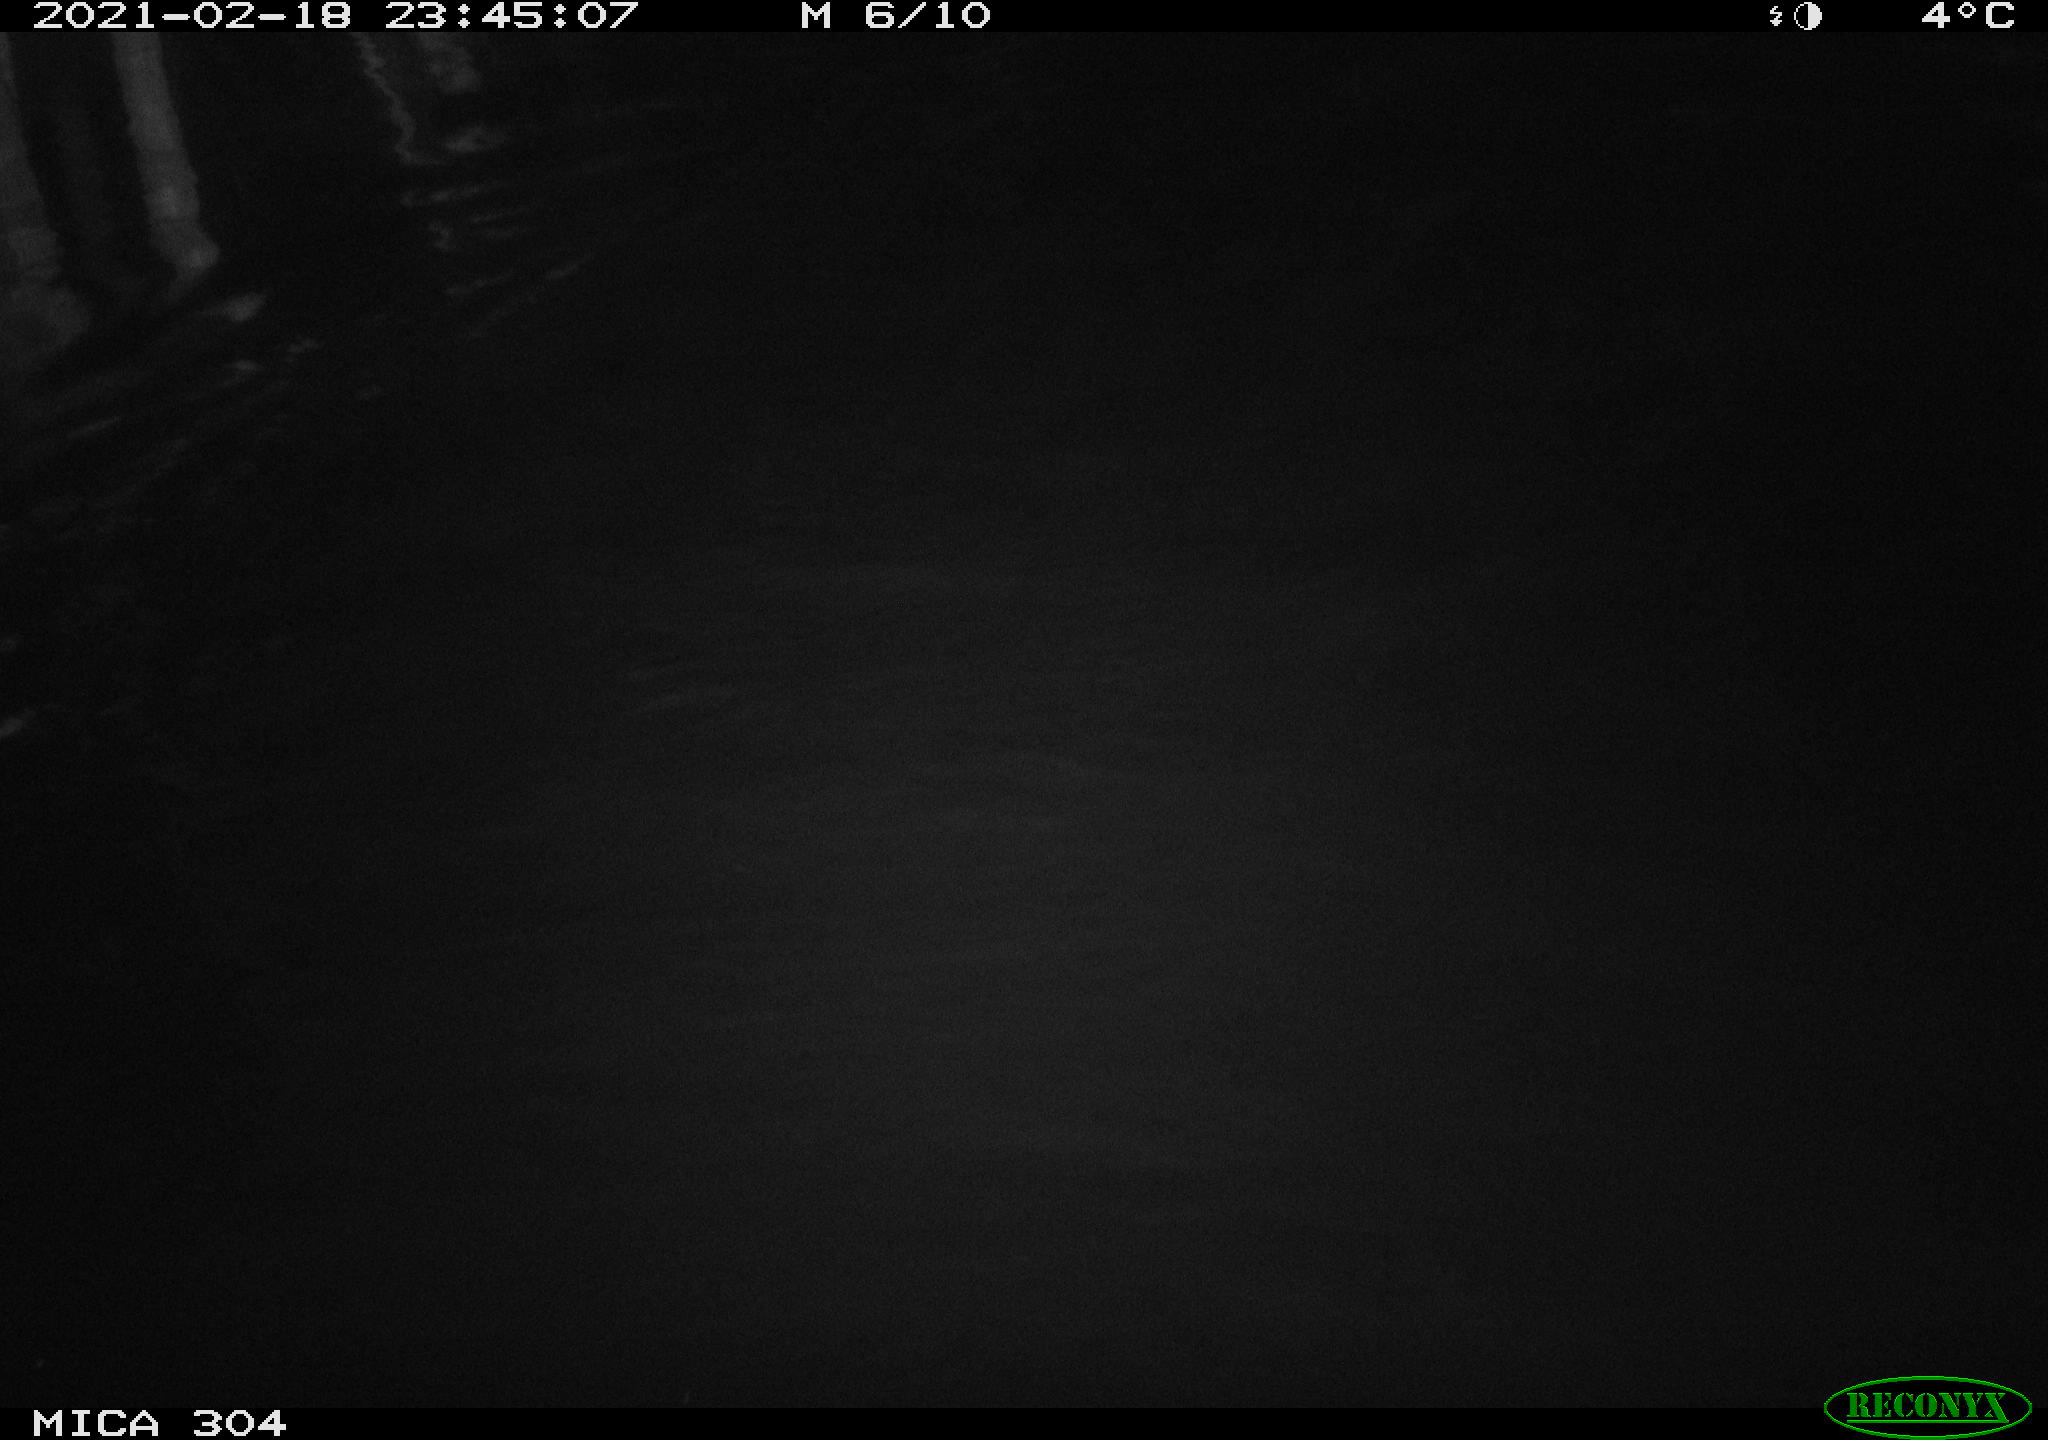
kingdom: Animalia
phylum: Chordata
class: Mammalia
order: Rodentia
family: Cricetidae
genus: Ondatra
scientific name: Ondatra zibethicus
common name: Muskrat
